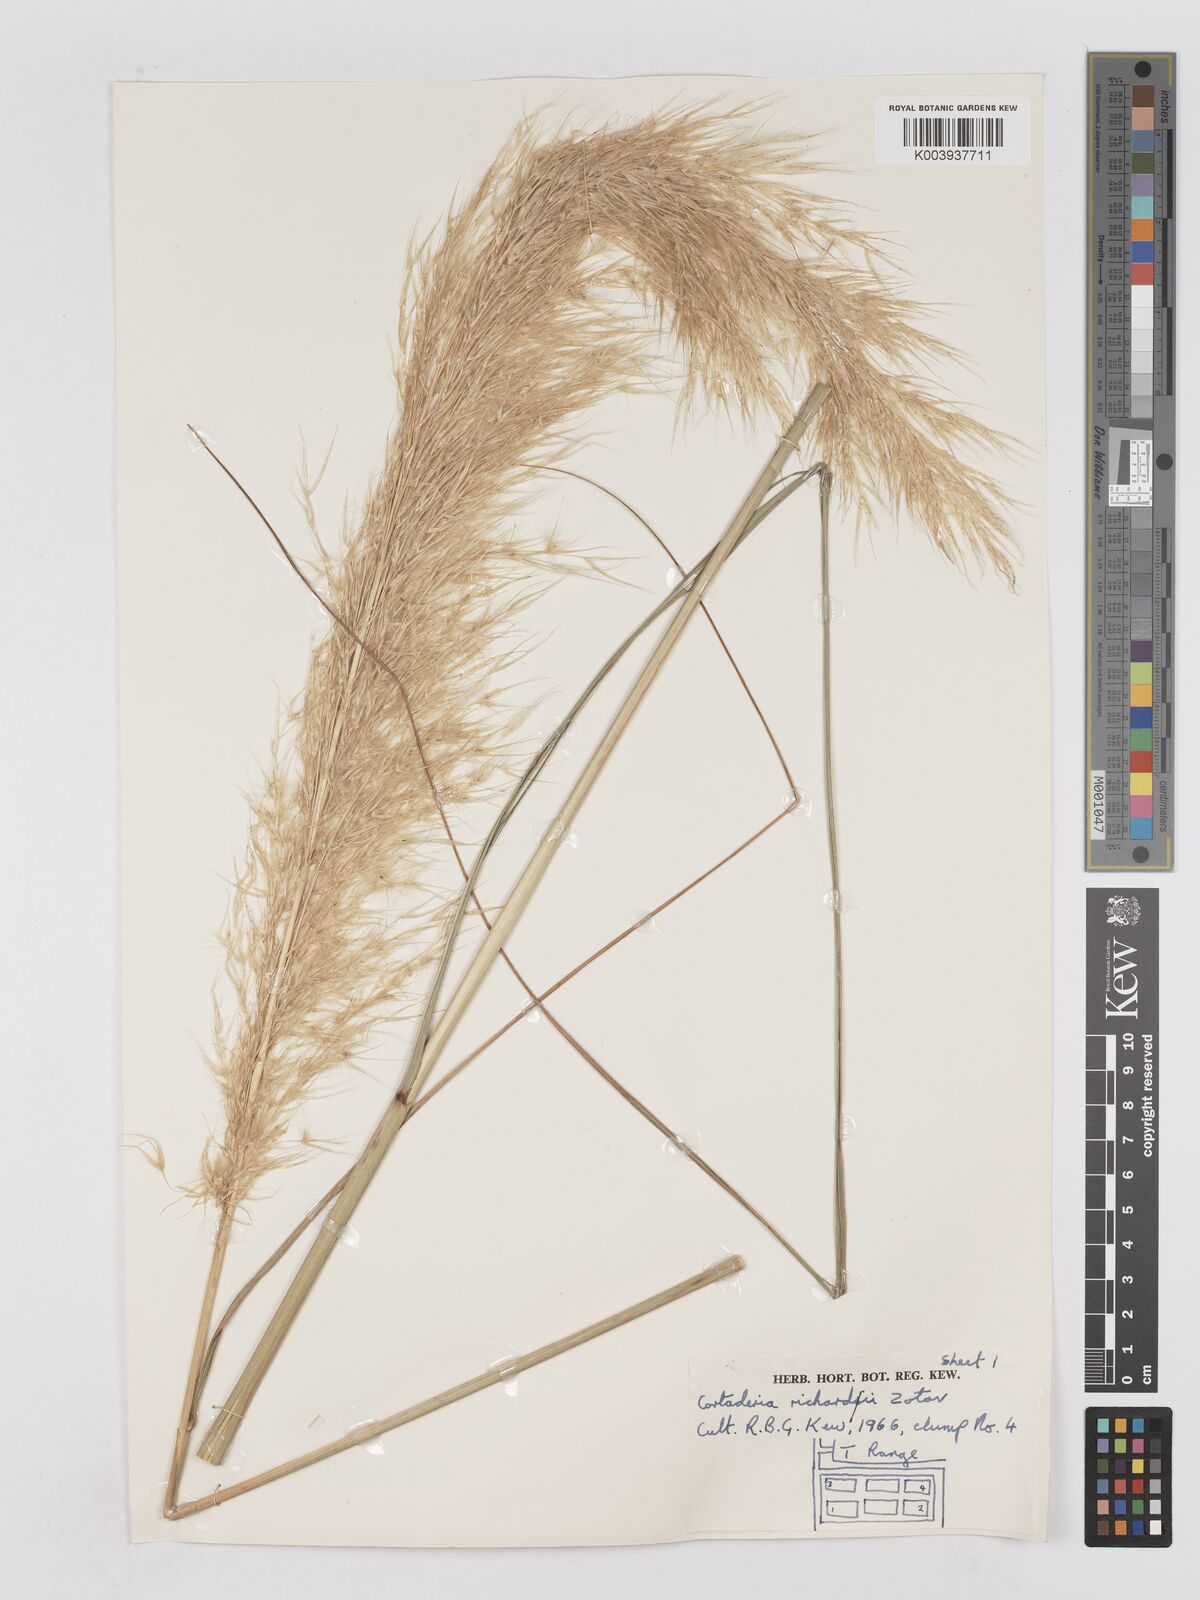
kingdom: Plantae
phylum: Tracheophyta
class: Liliopsida
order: Poales
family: Poaceae
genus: Austroderia
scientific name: Austroderia richardii
